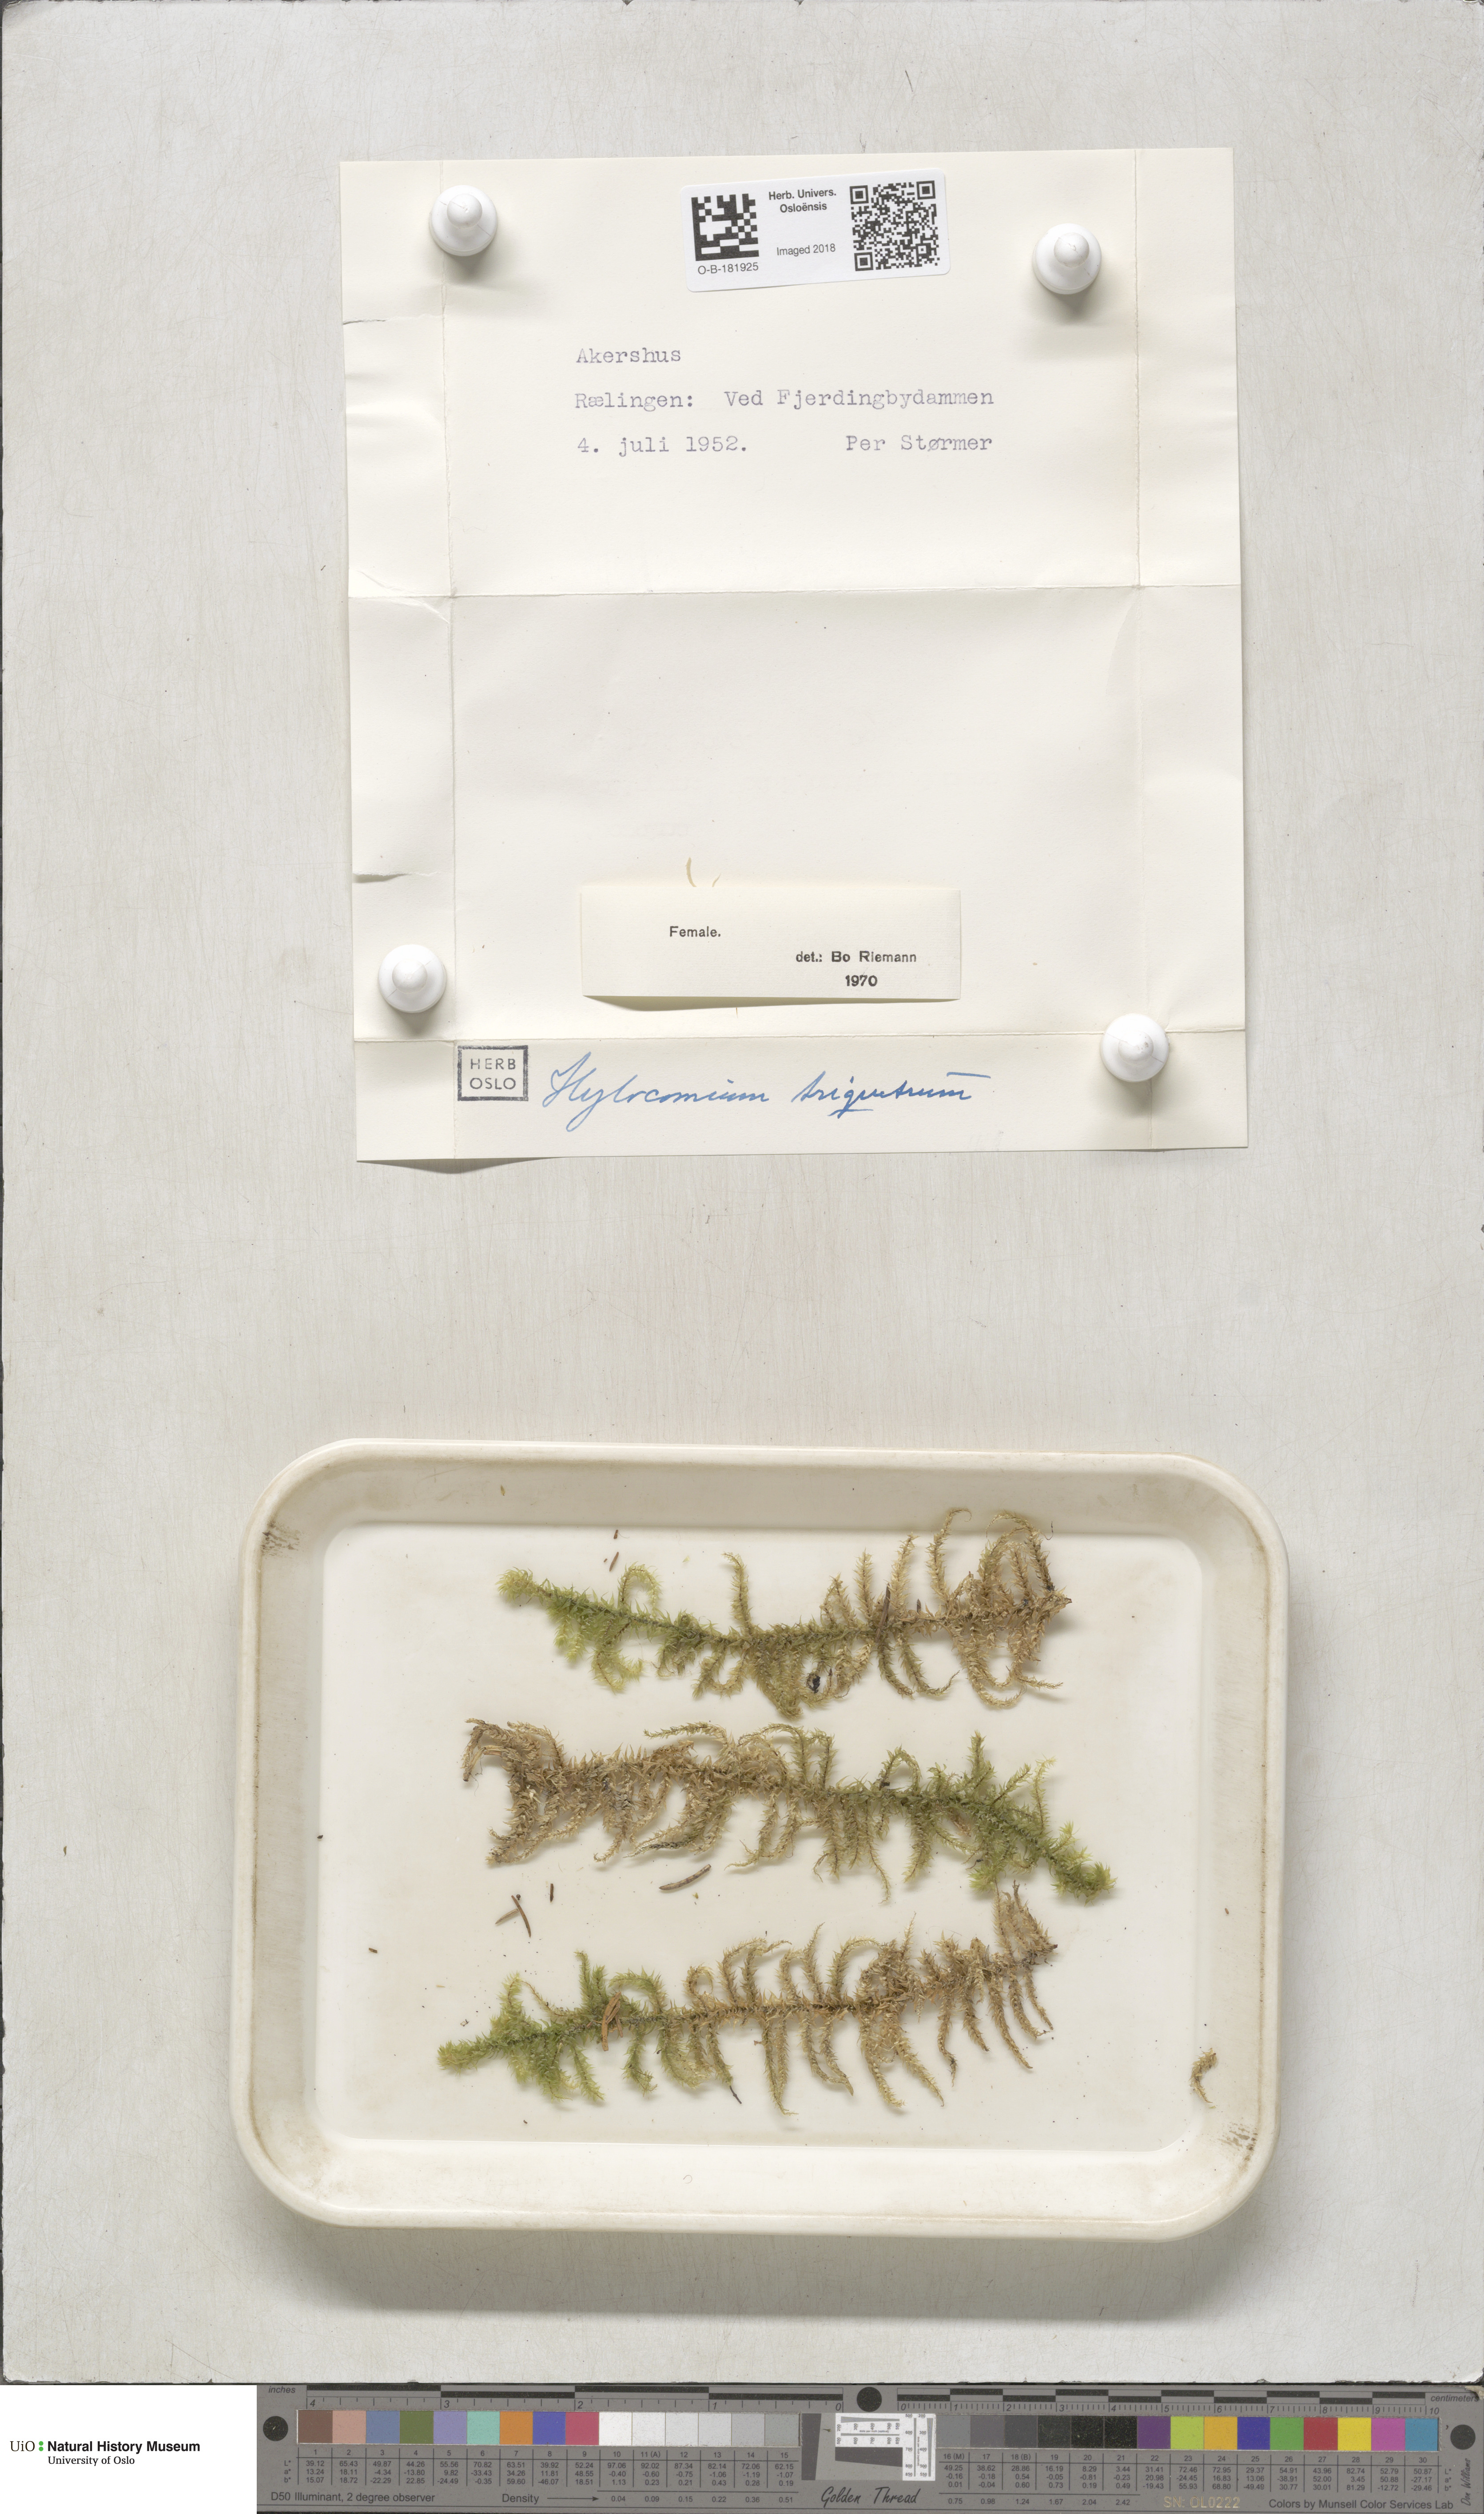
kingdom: Plantae
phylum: Bryophyta
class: Bryopsida
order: Hypnales
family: Hylocomiaceae
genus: Hylocomiadelphus
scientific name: Hylocomiadelphus triquetrus
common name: Rough goose neck moss
